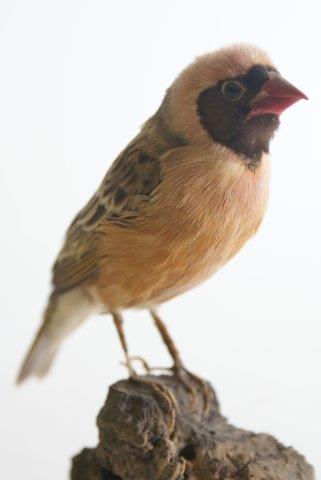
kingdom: Animalia
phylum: Chordata
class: Aves
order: Passeriformes
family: Ploceidae
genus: Quelea
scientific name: Quelea quelea
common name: Roodbekwever
